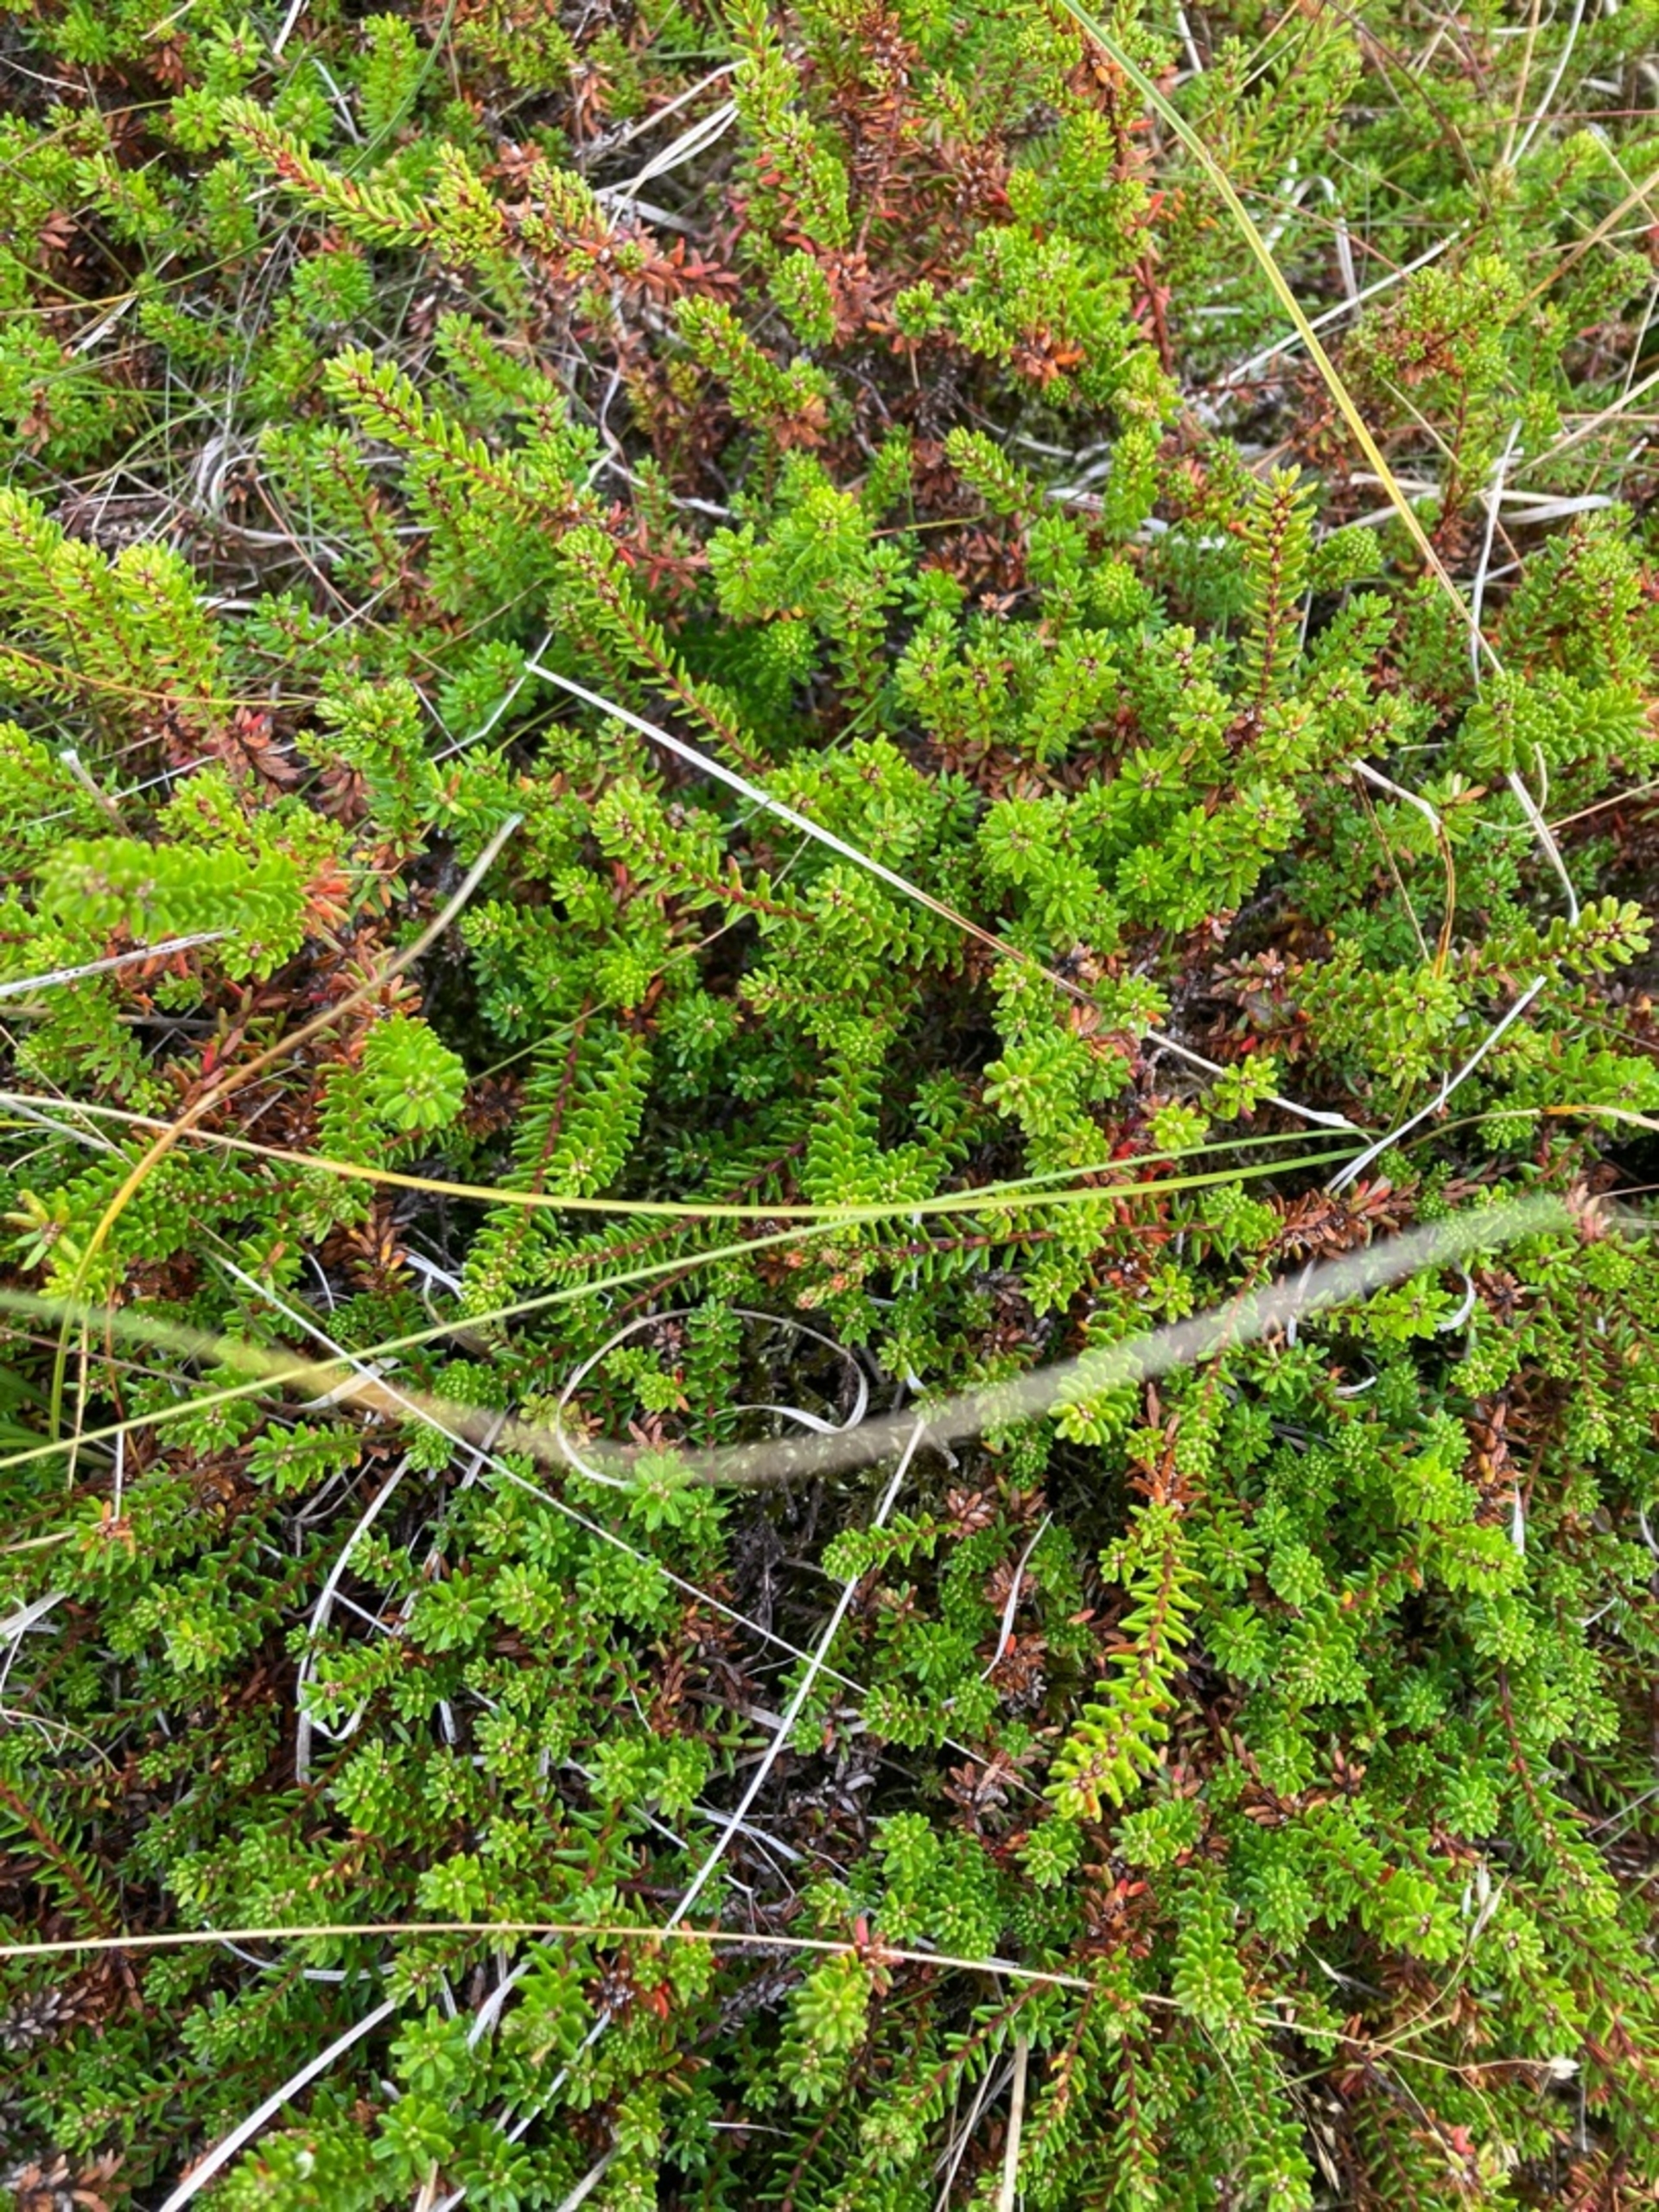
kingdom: Plantae
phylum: Tracheophyta
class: Magnoliopsida
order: Ericales
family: Ericaceae
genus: Empetrum
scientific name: Empetrum nigrum
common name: Revling
